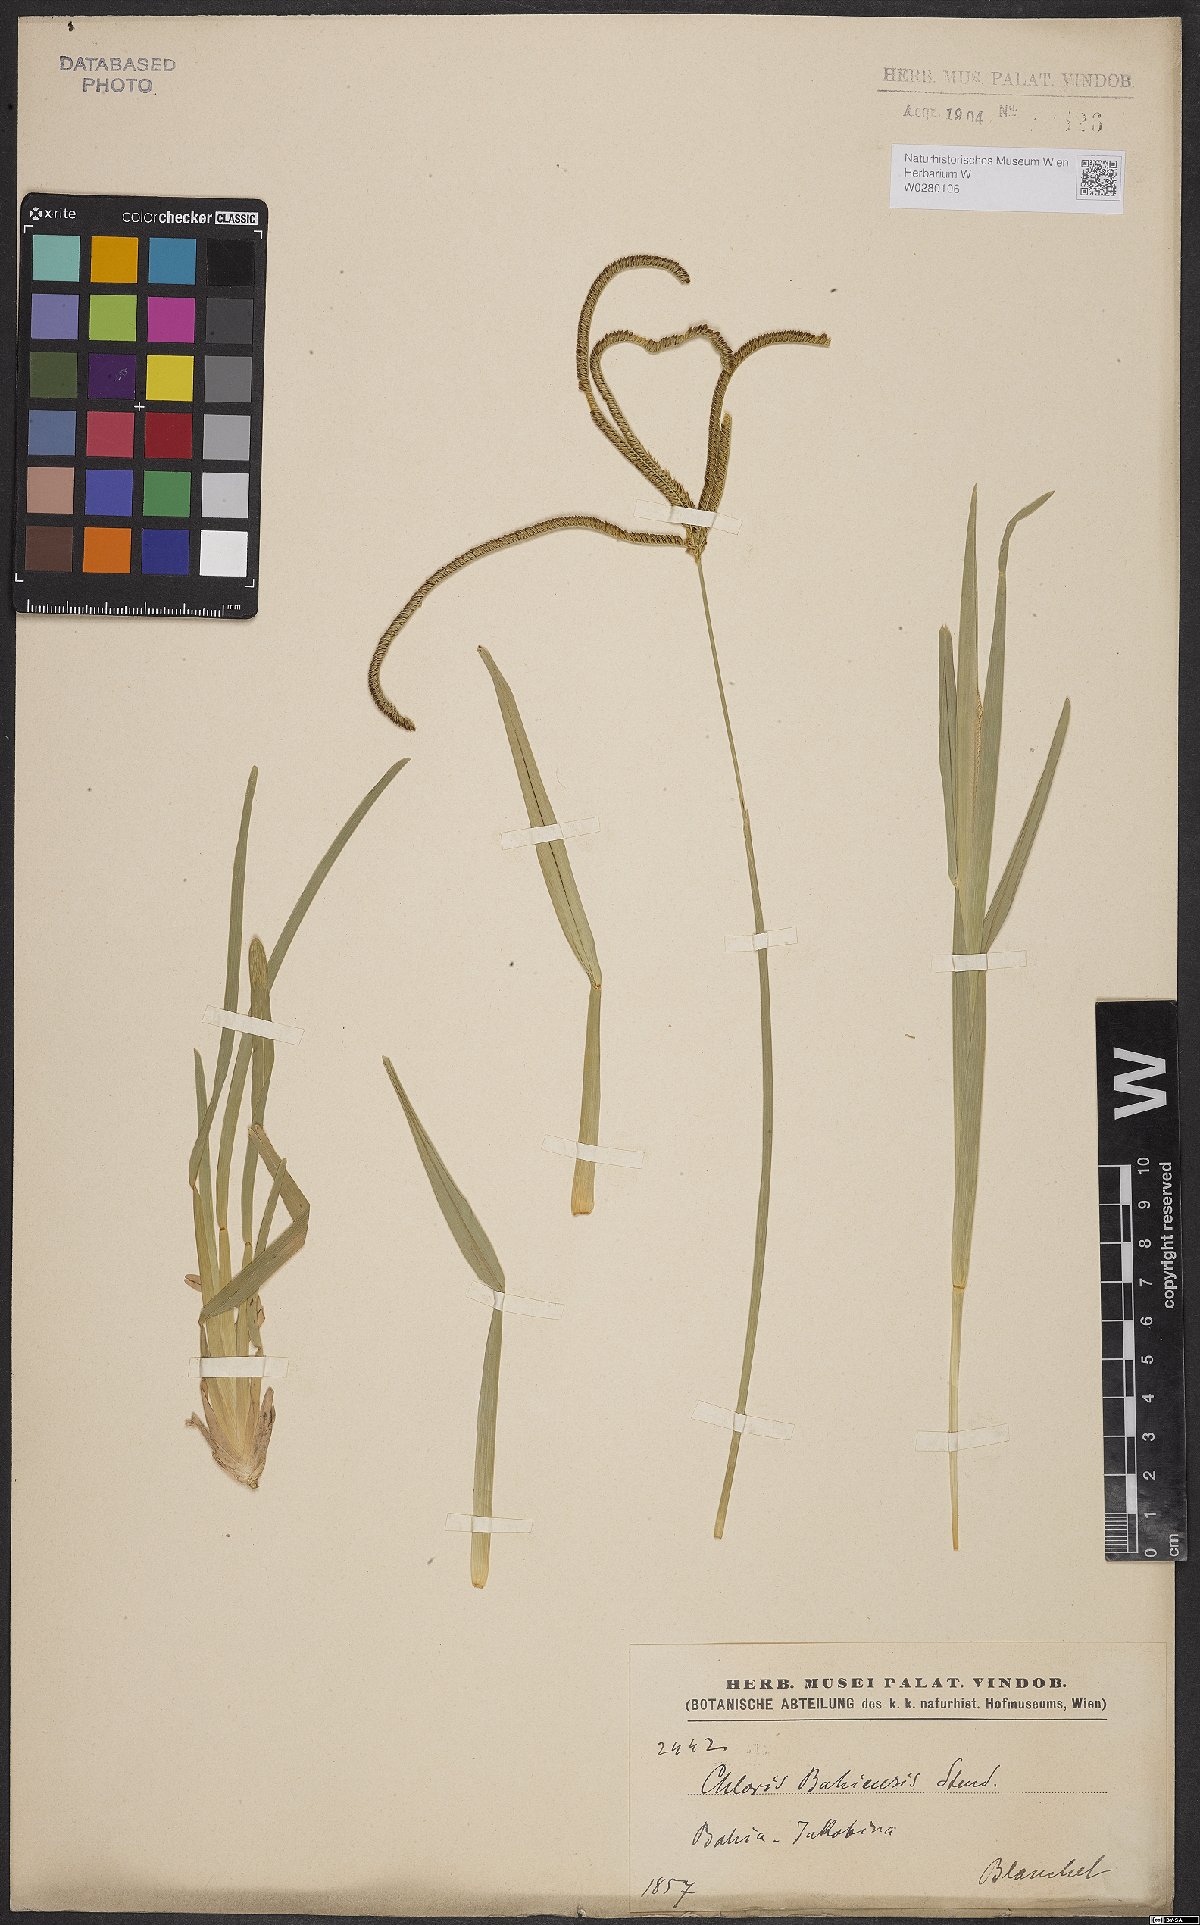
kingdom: Plantae
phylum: Tracheophyta
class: Liliopsida
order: Poales
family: Poaceae
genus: Eustachys
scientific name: Eustachys bahiensis
